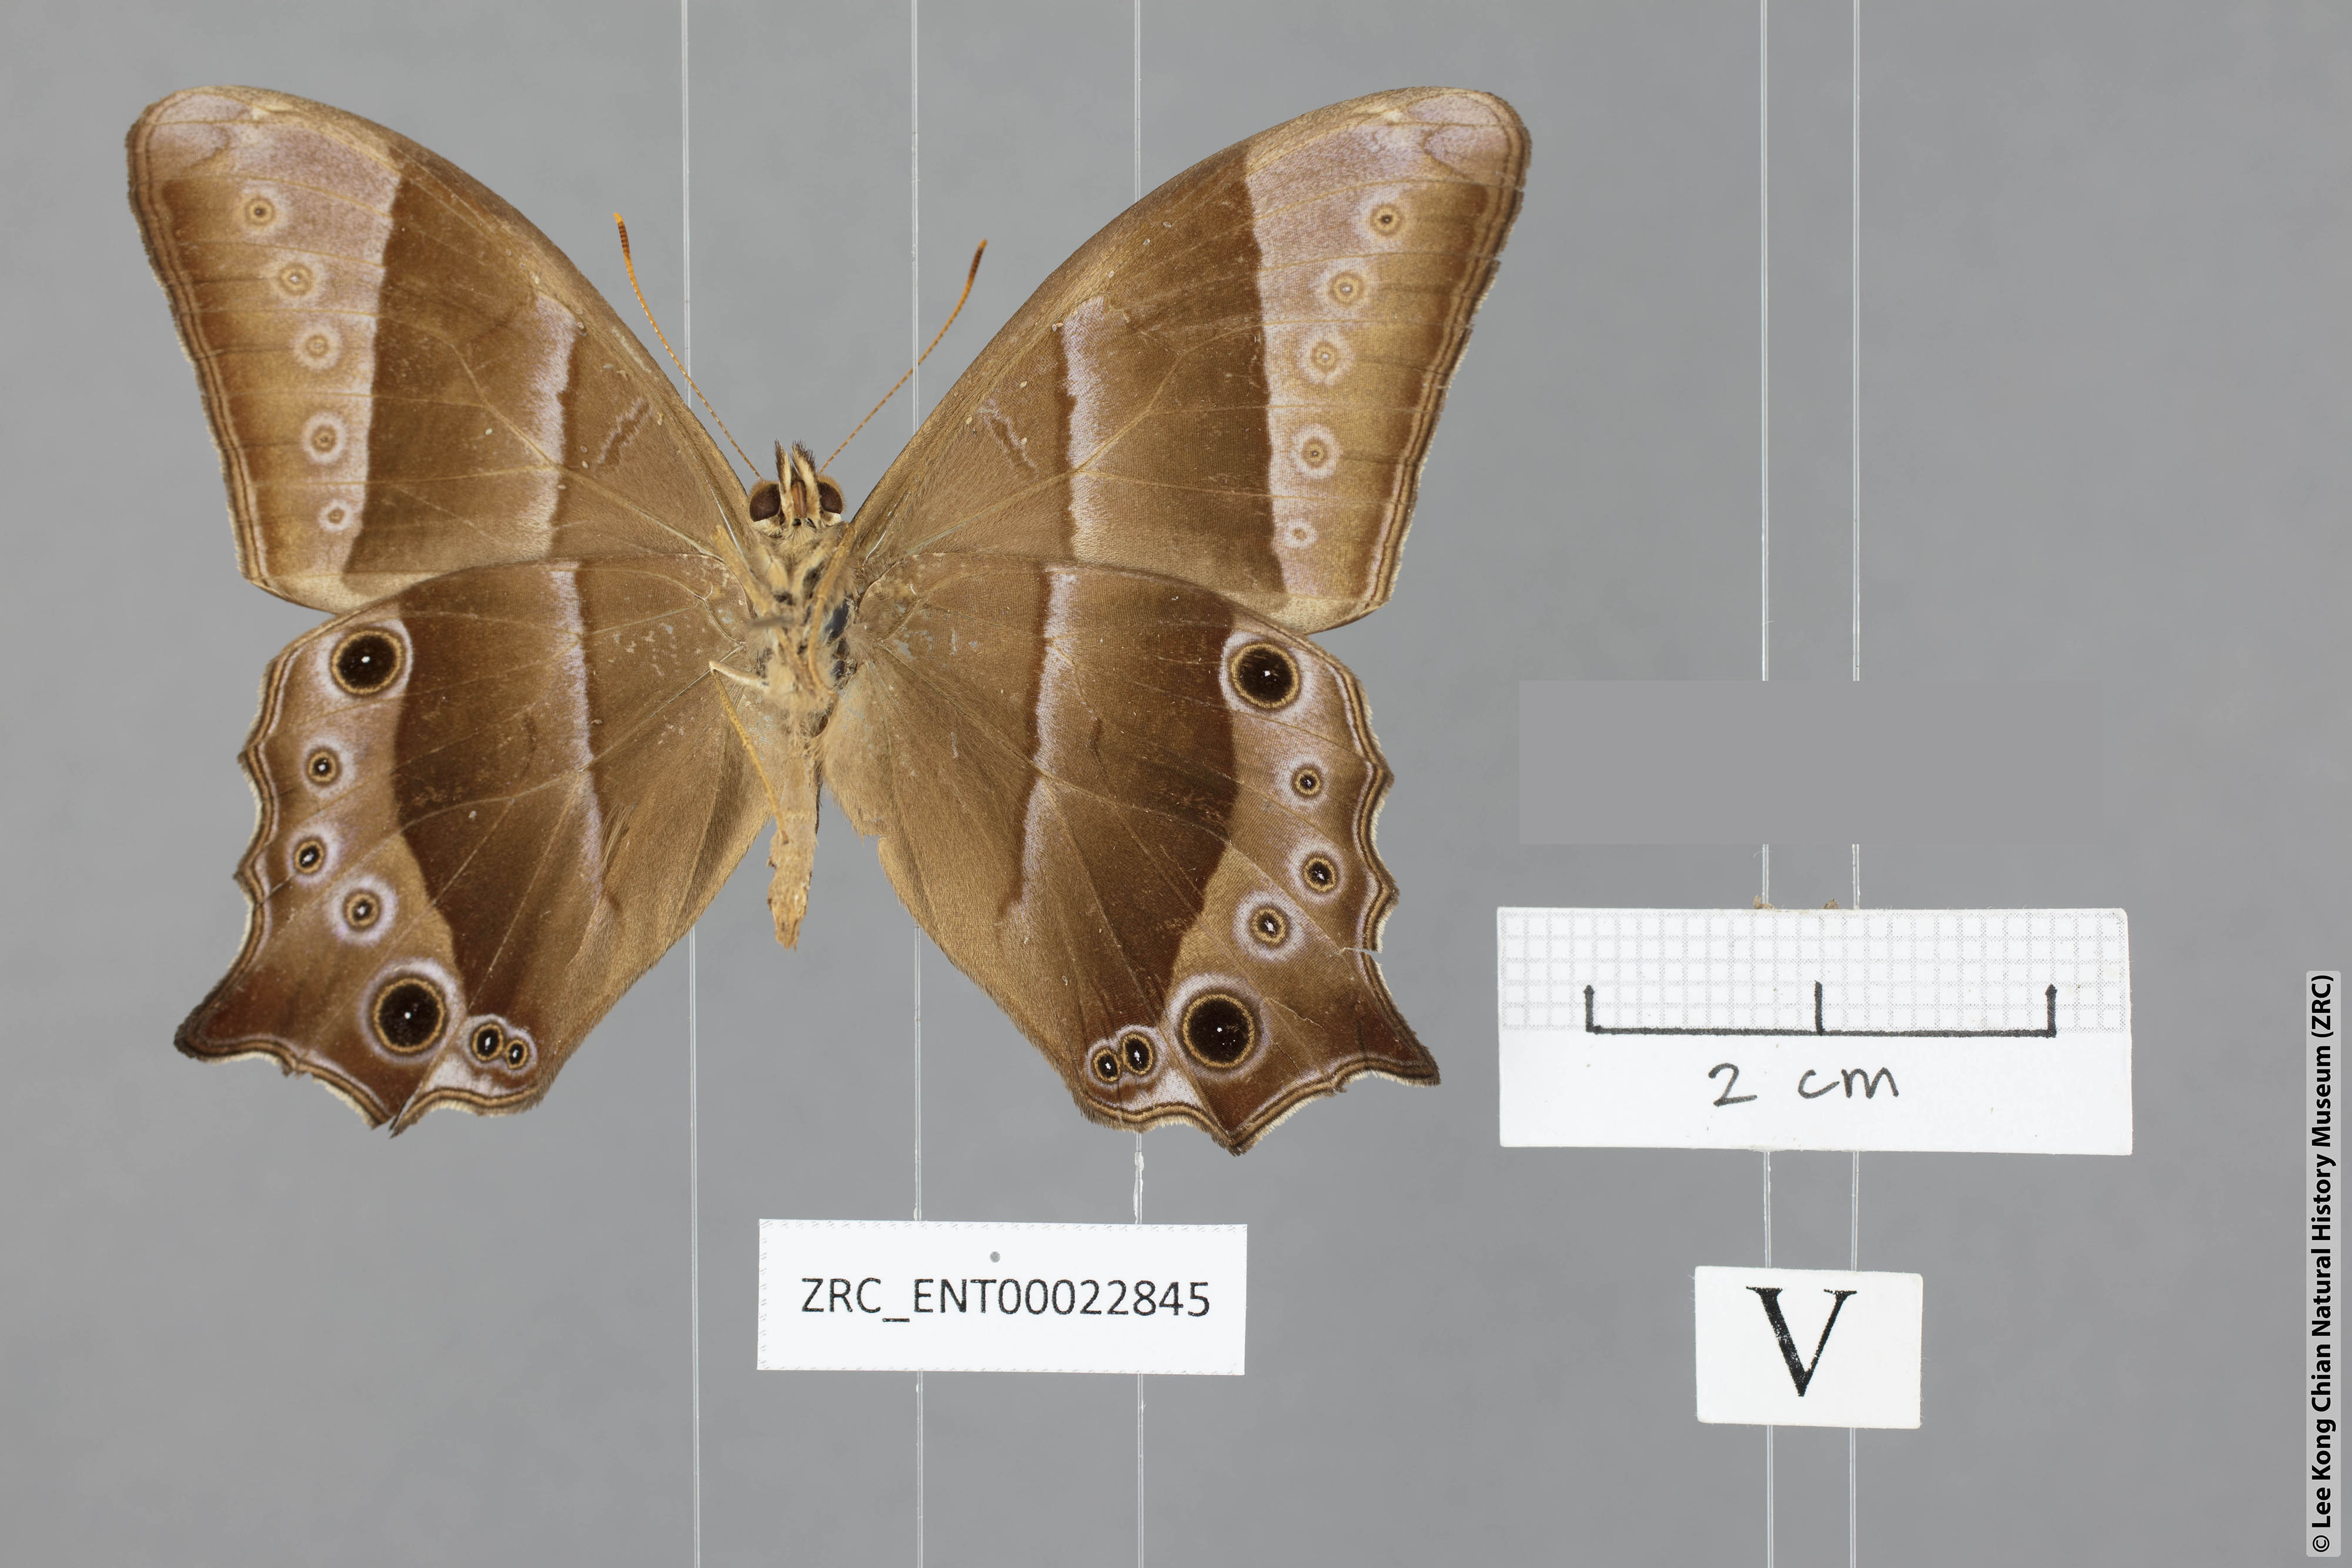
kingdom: Animalia
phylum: Arthropoda
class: Insecta
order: Lepidoptera
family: Nymphalidae
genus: Lethe
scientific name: Lethe vindhya
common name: Black forester
